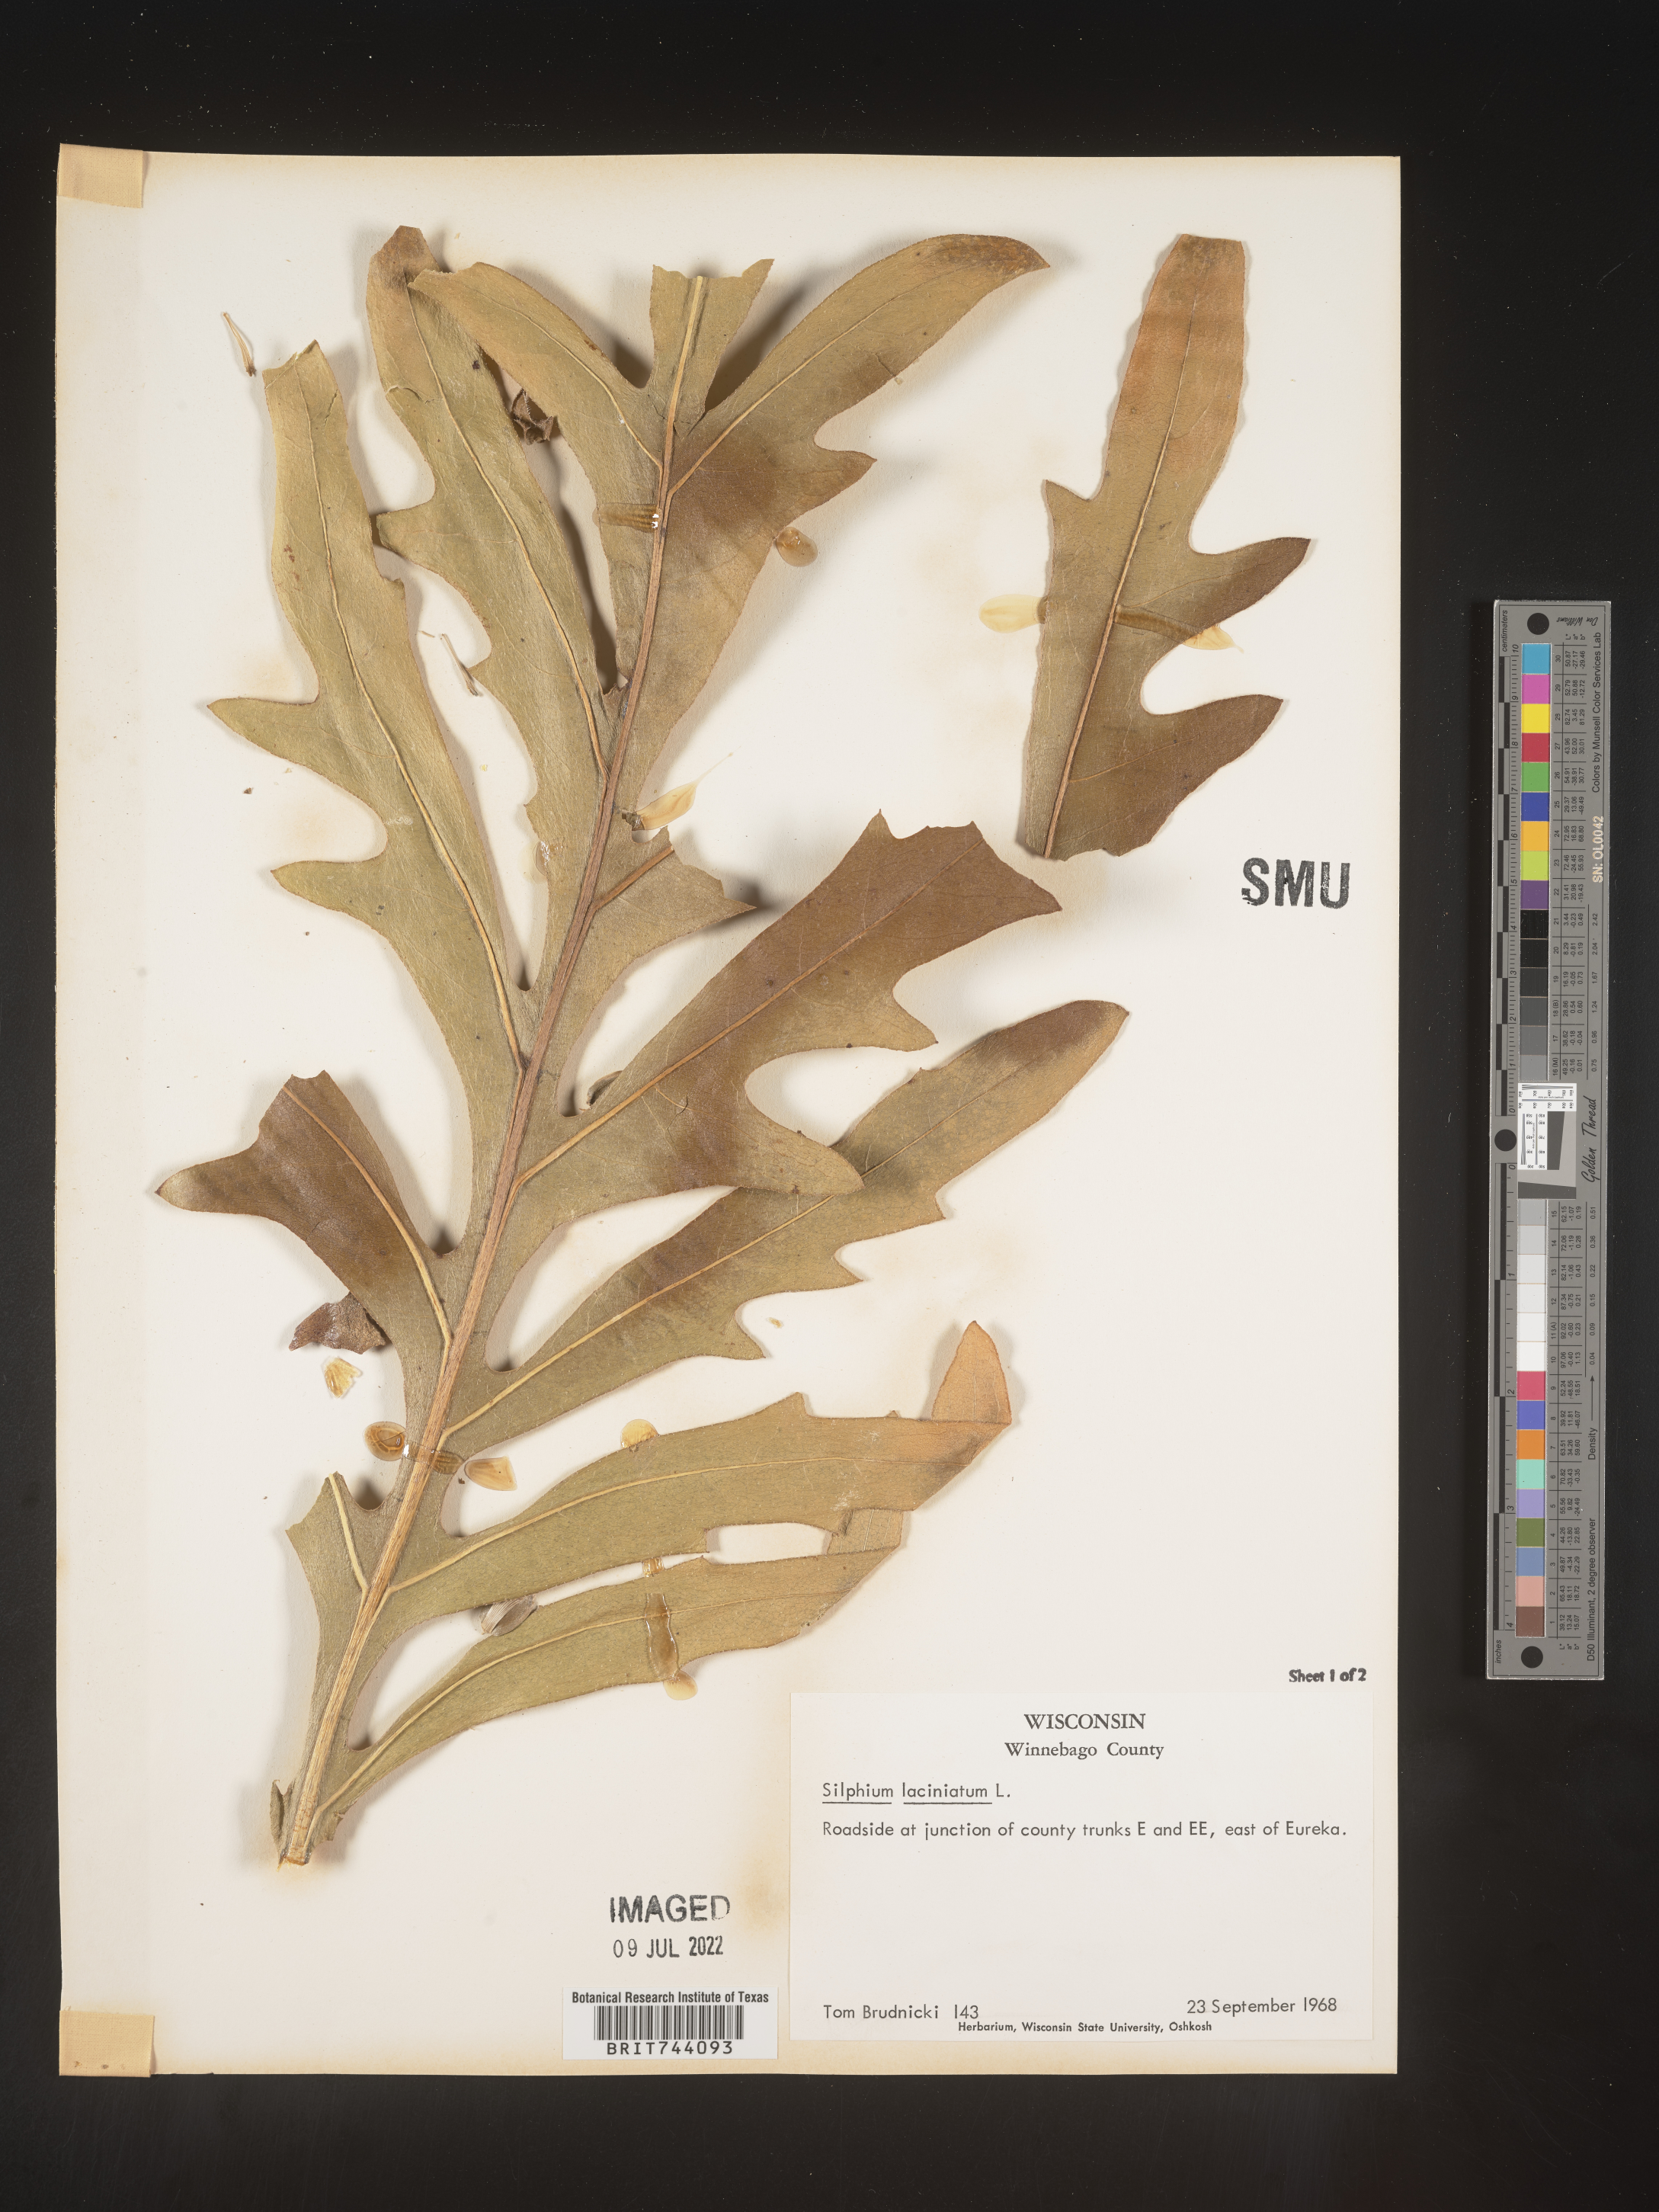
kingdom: Plantae
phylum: Tracheophyta
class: Magnoliopsida
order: Asterales
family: Asteraceae
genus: Silphium
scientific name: Silphium laciniatum
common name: Polarplant
